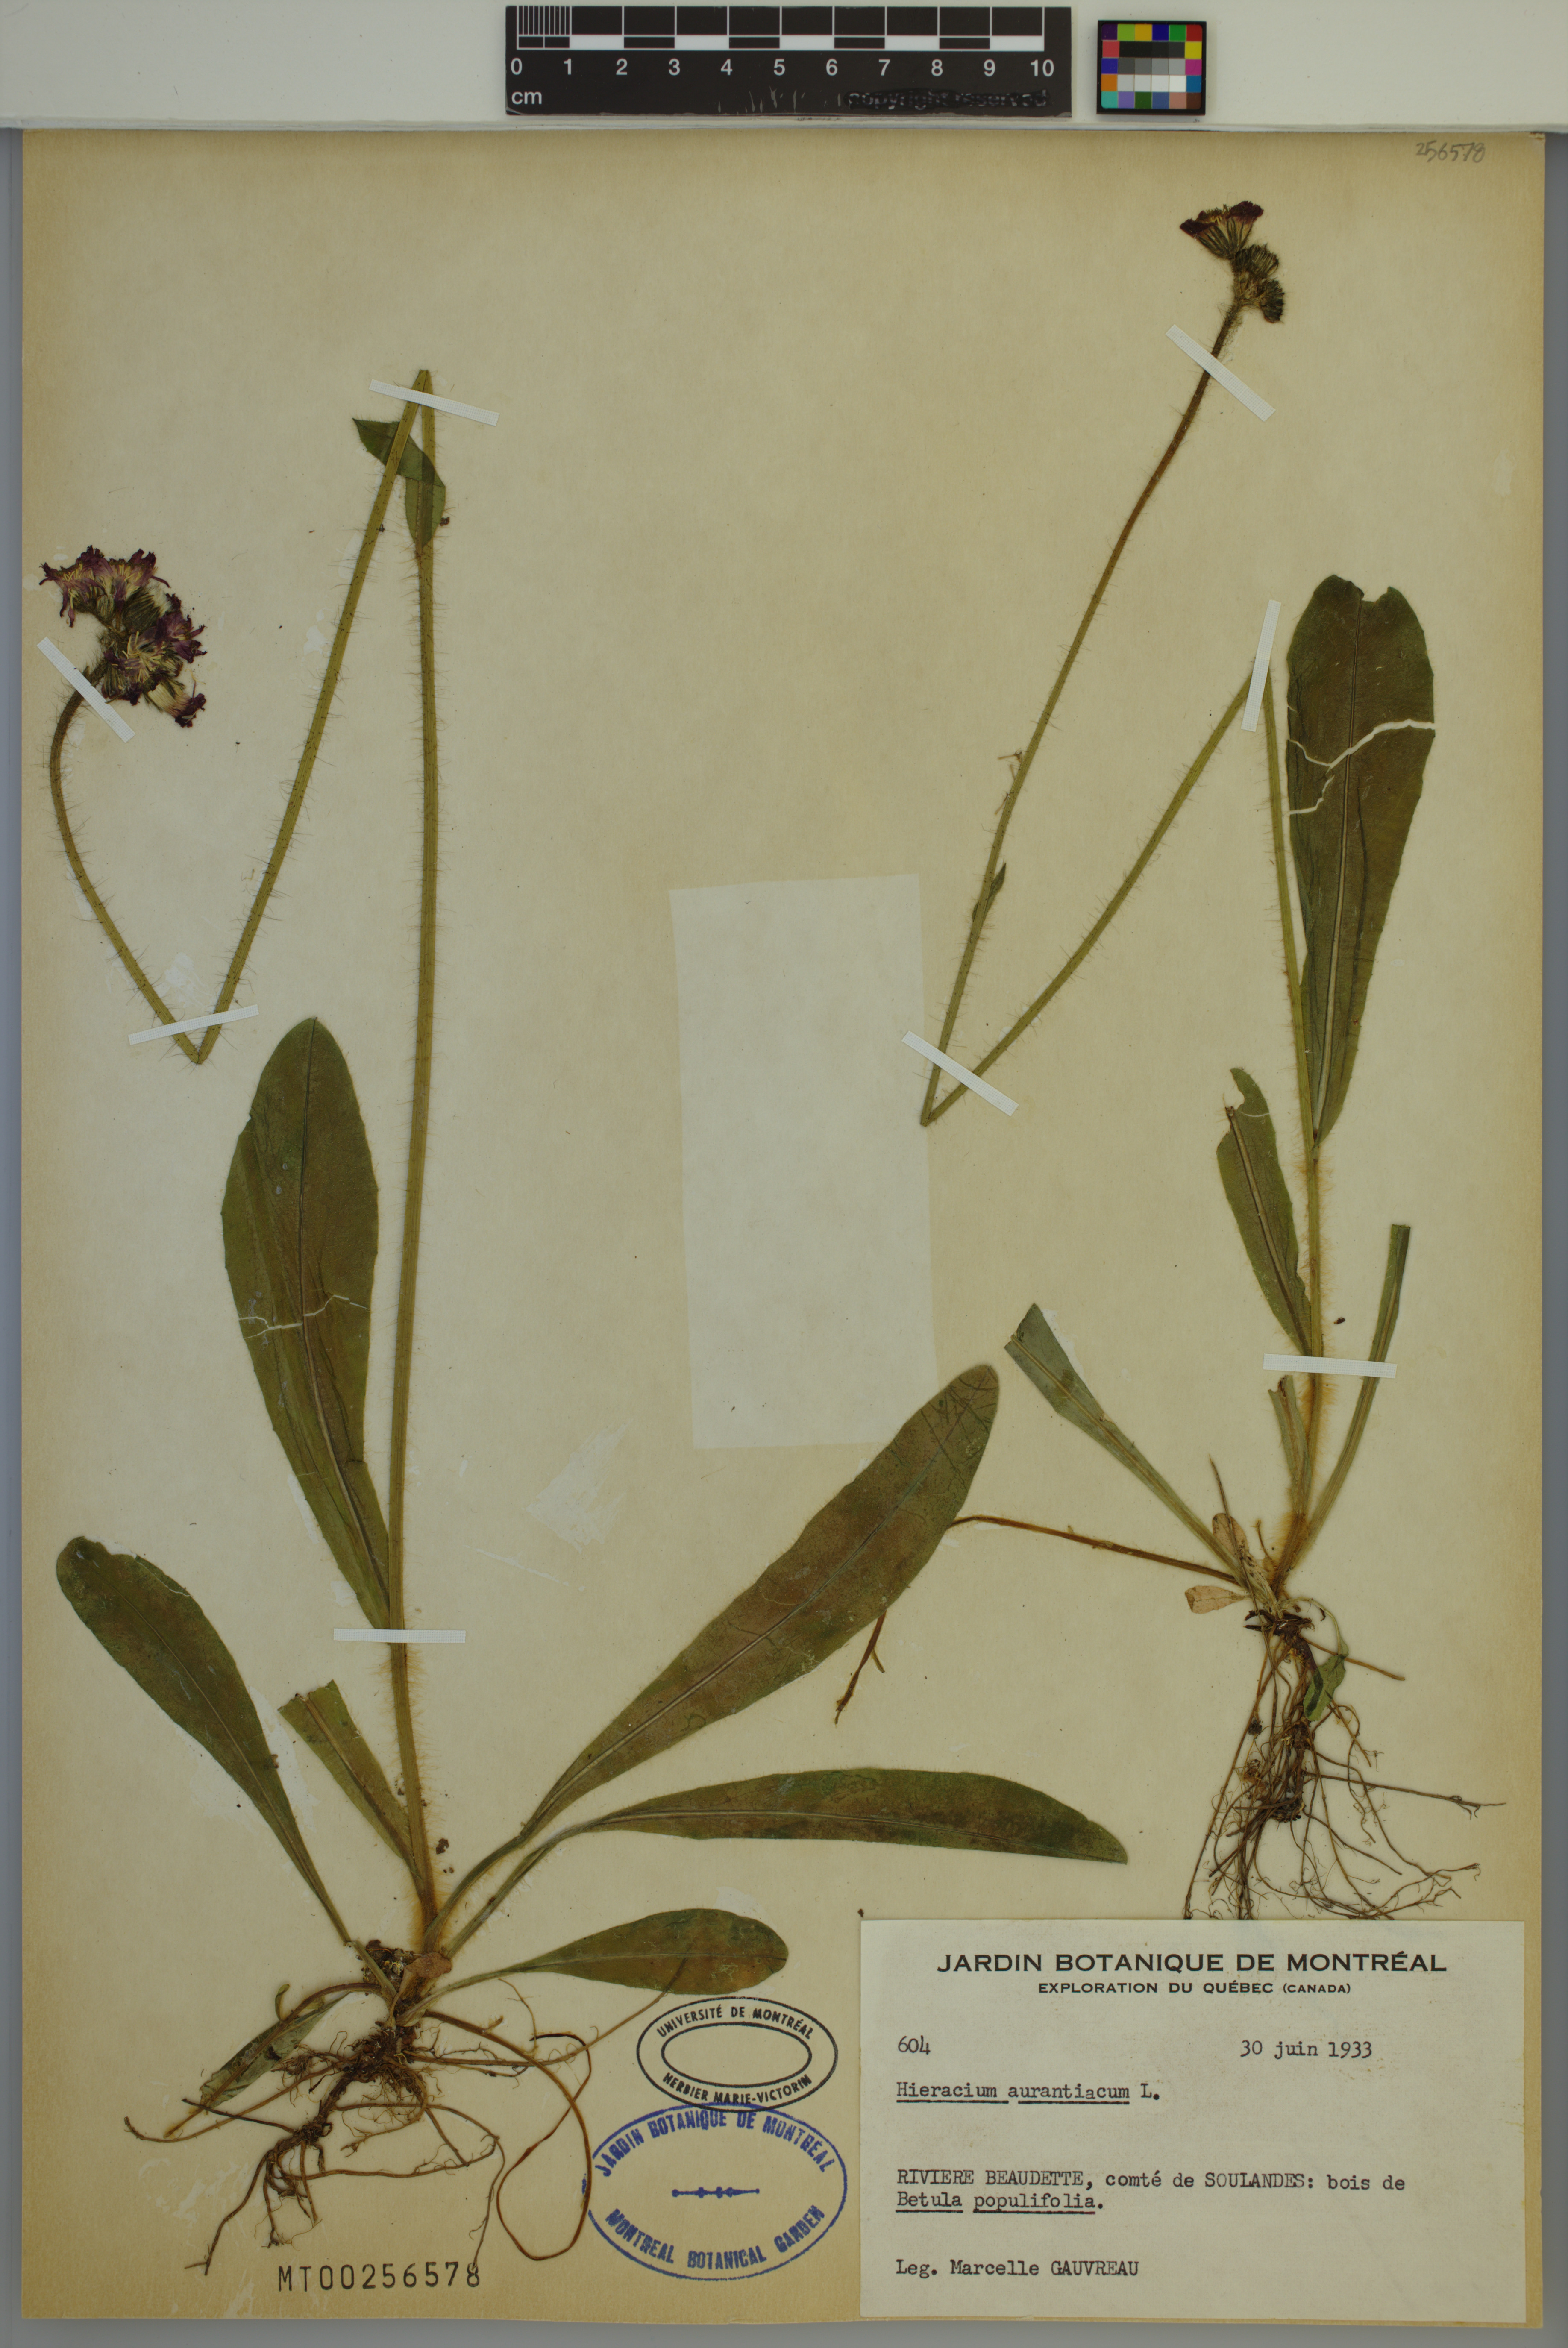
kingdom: Plantae
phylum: Tracheophyta
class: Magnoliopsida
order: Asterales
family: Asteraceae
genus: Pilosella
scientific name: Pilosella aurantiaca
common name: Fox-and-cubs
